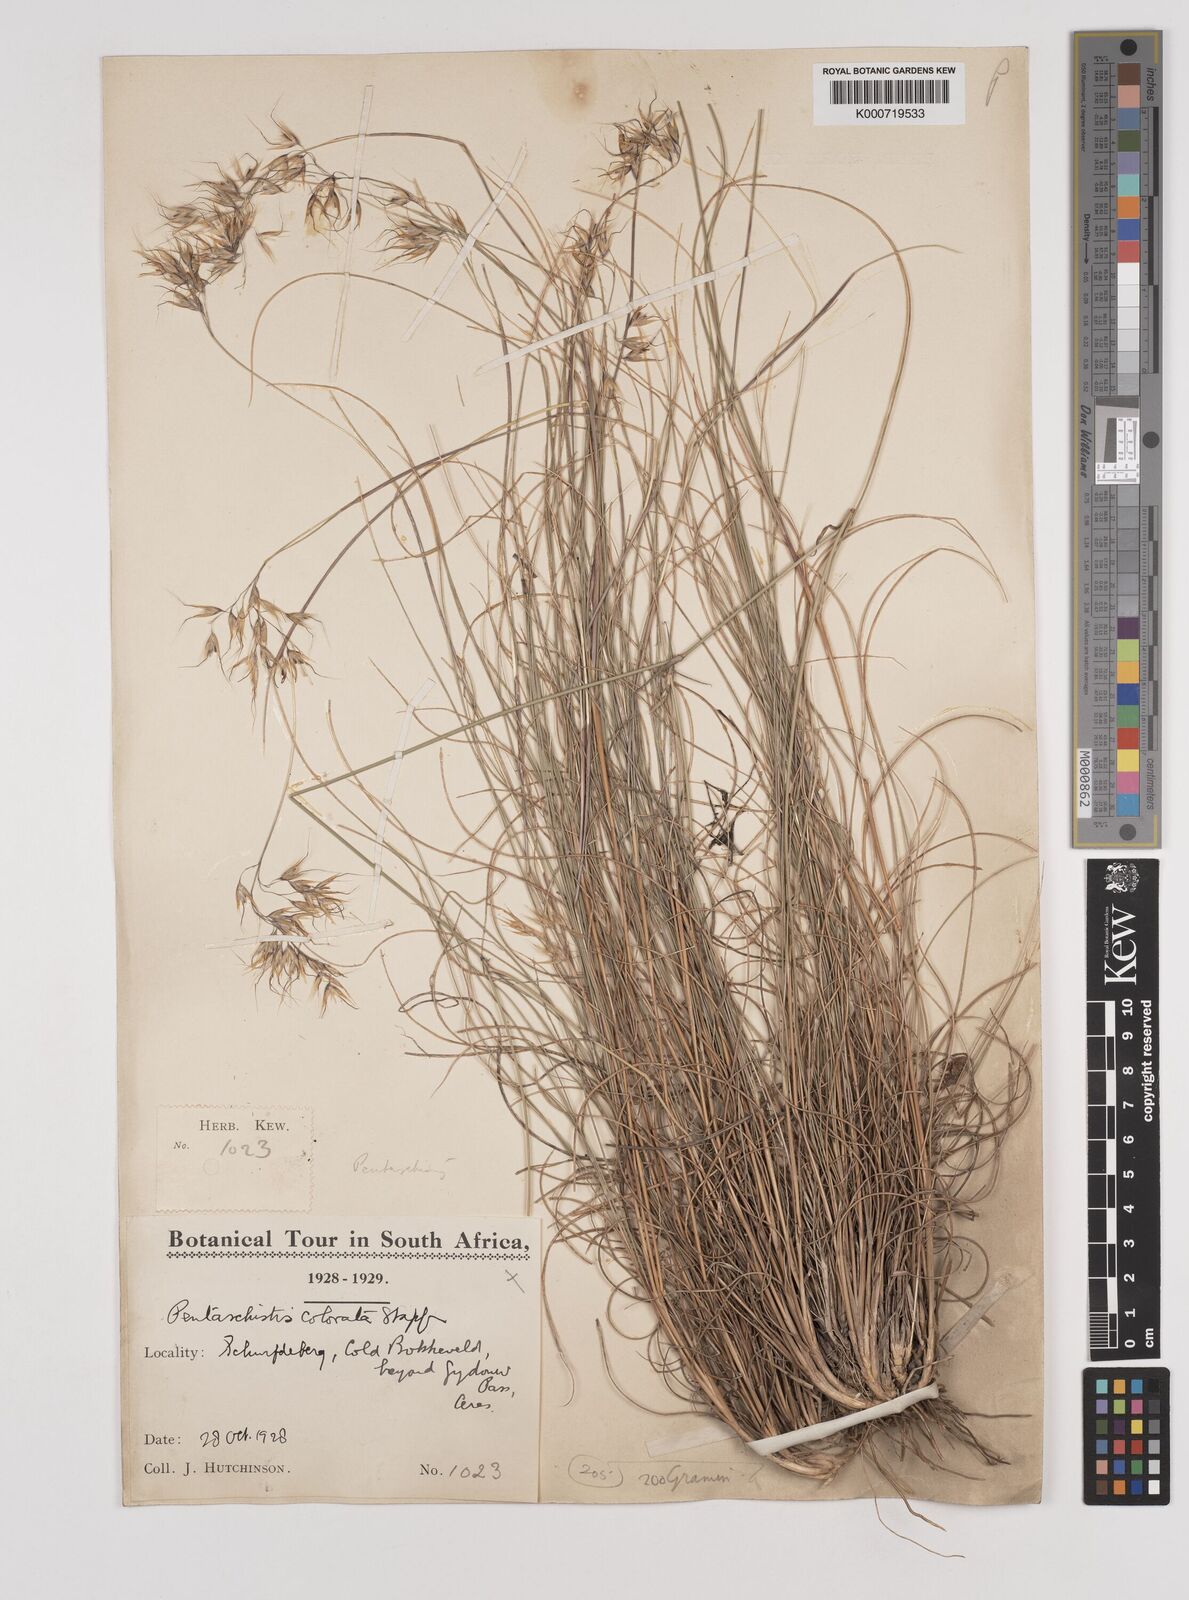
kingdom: Plantae
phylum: Tracheophyta
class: Liliopsida
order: Poales
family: Poaceae
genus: Pentameris
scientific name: Pentameris colorata
